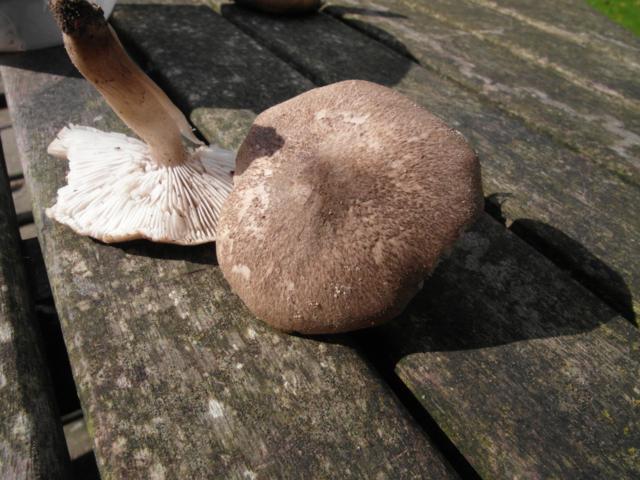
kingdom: Fungi
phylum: Basidiomycota
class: Agaricomycetes
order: Agaricales
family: Tricholomataceae
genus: Tricholoma
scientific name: Tricholoma scalpturatum
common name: gulplettet ridderhat
